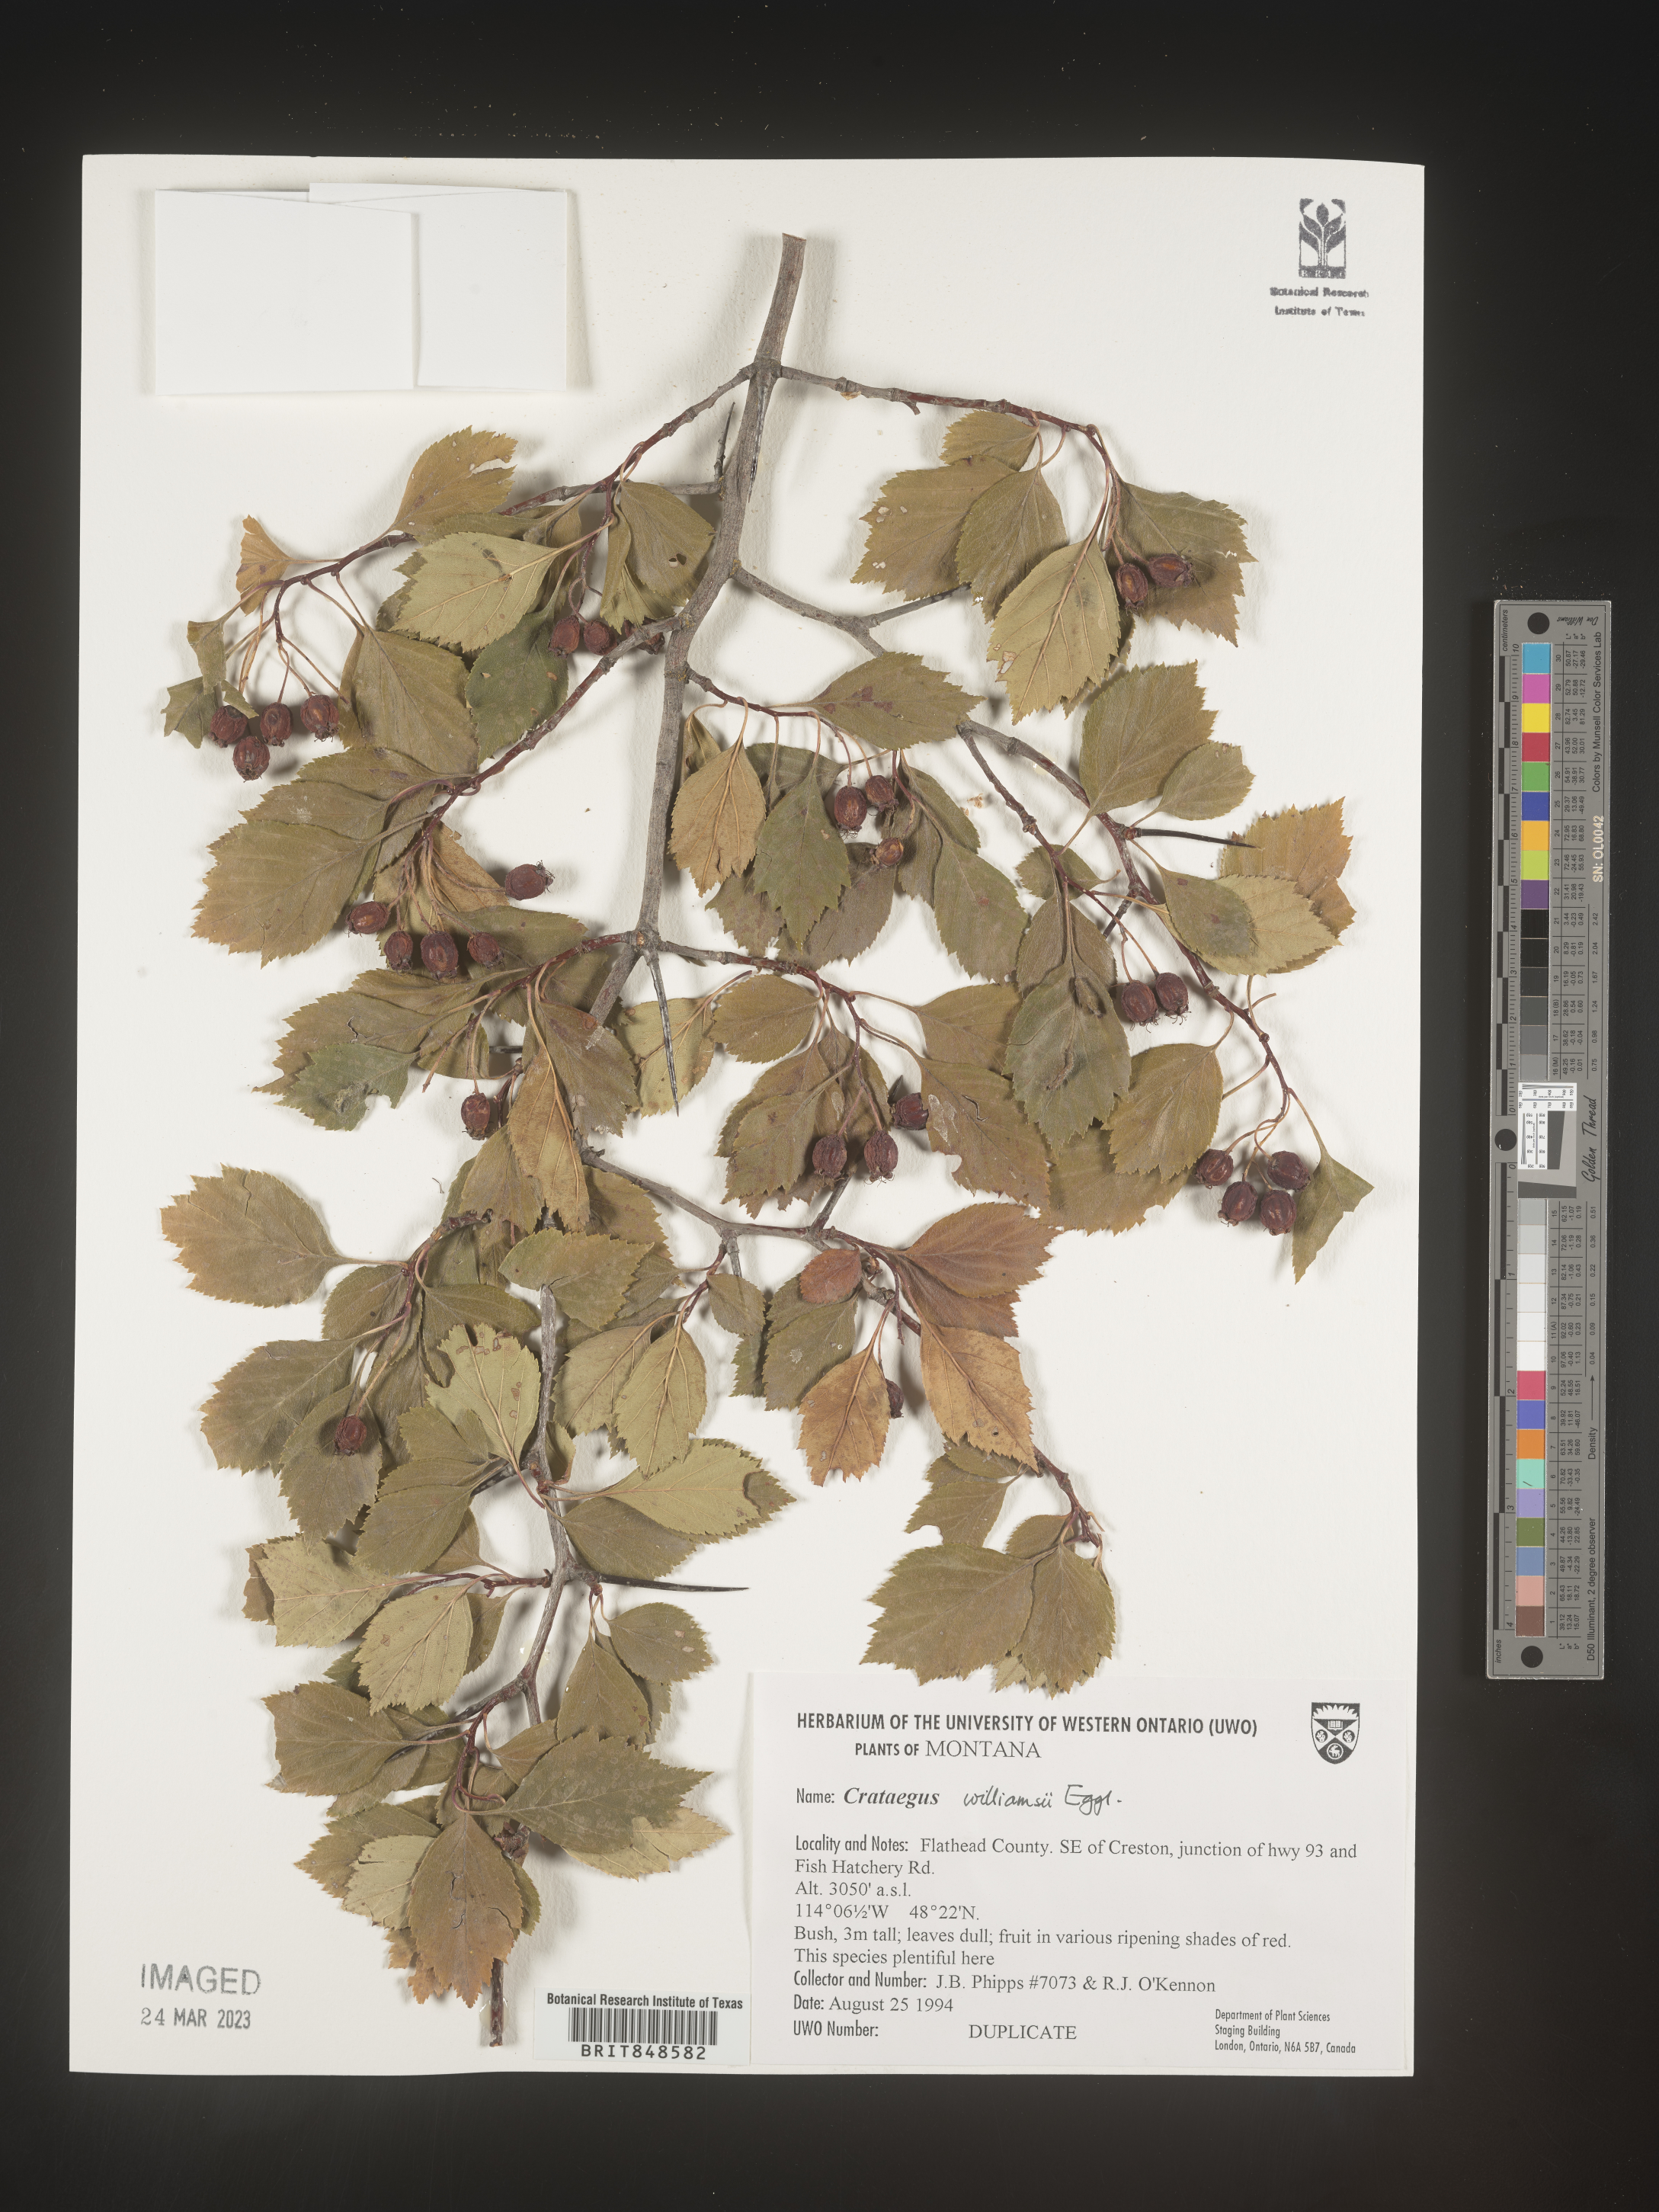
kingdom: Plantae
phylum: Tracheophyta
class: Magnoliopsida
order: Rosales
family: Rosaceae
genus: Crataegus
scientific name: Crataegus williamsii
